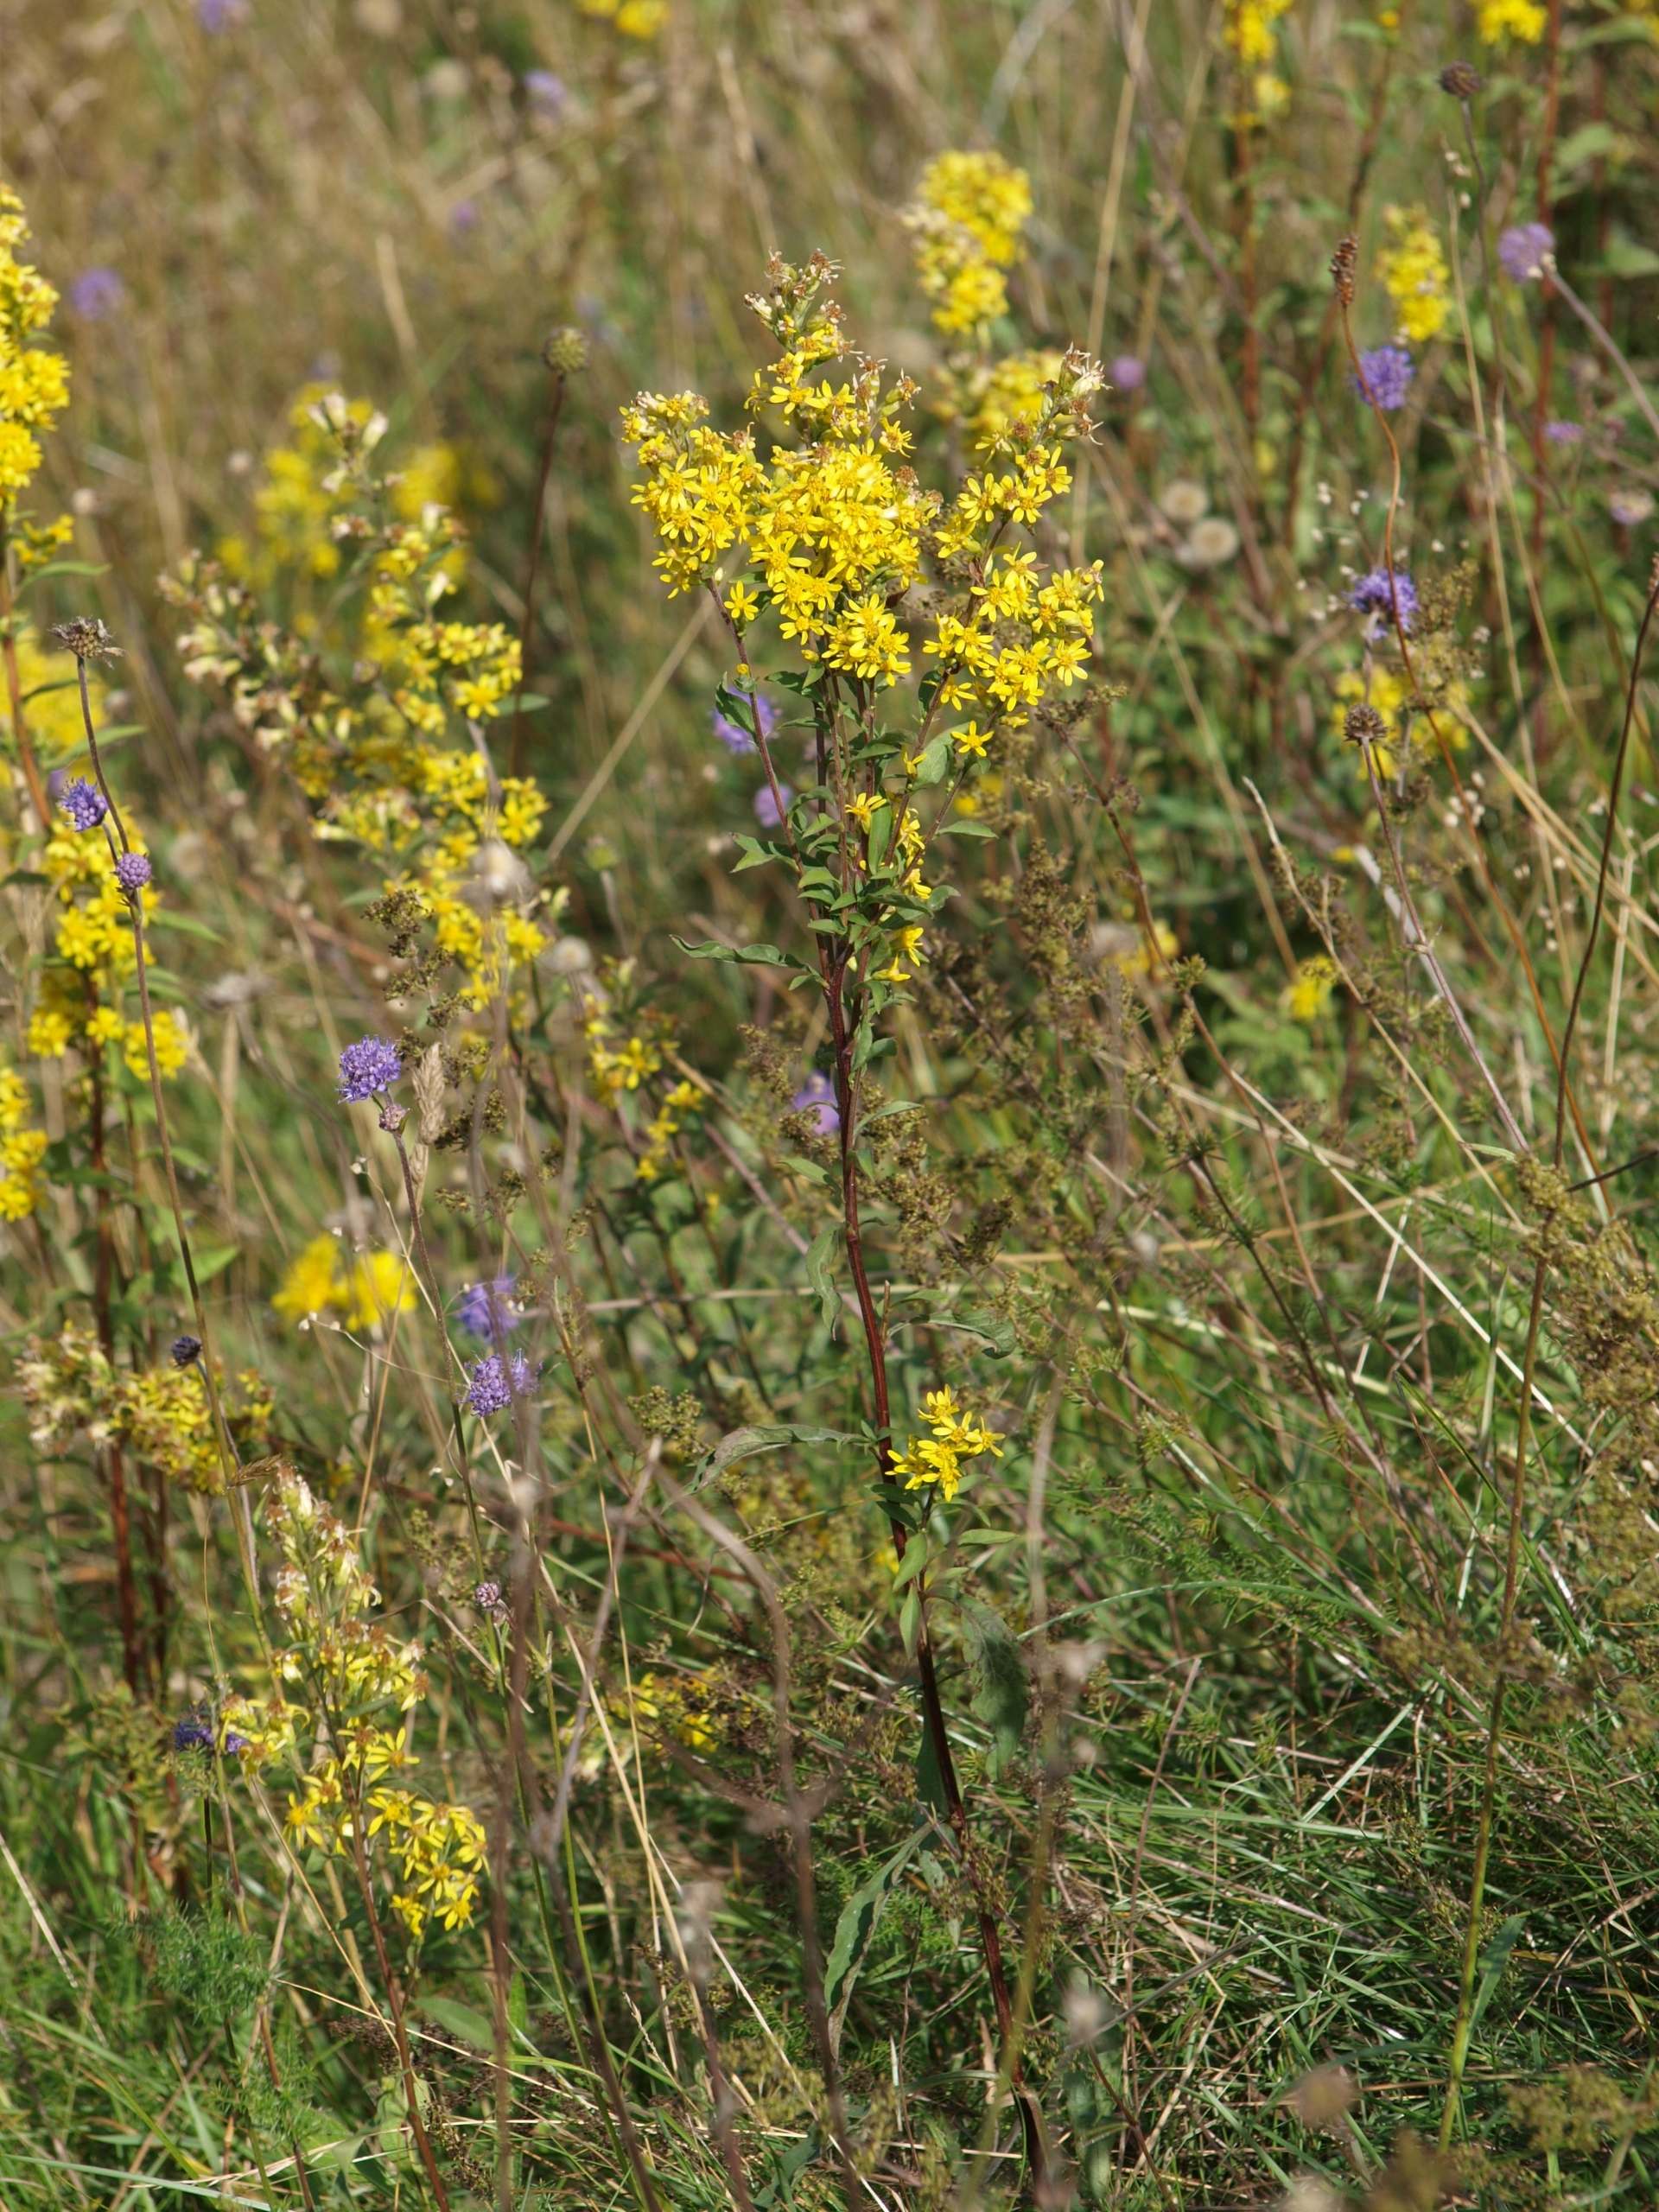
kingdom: Plantae
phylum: Tracheophyta
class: Magnoliopsida
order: Asterales
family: Asteraceae
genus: Solidago
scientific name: Solidago virgaurea
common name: Almindelig gyldenris
